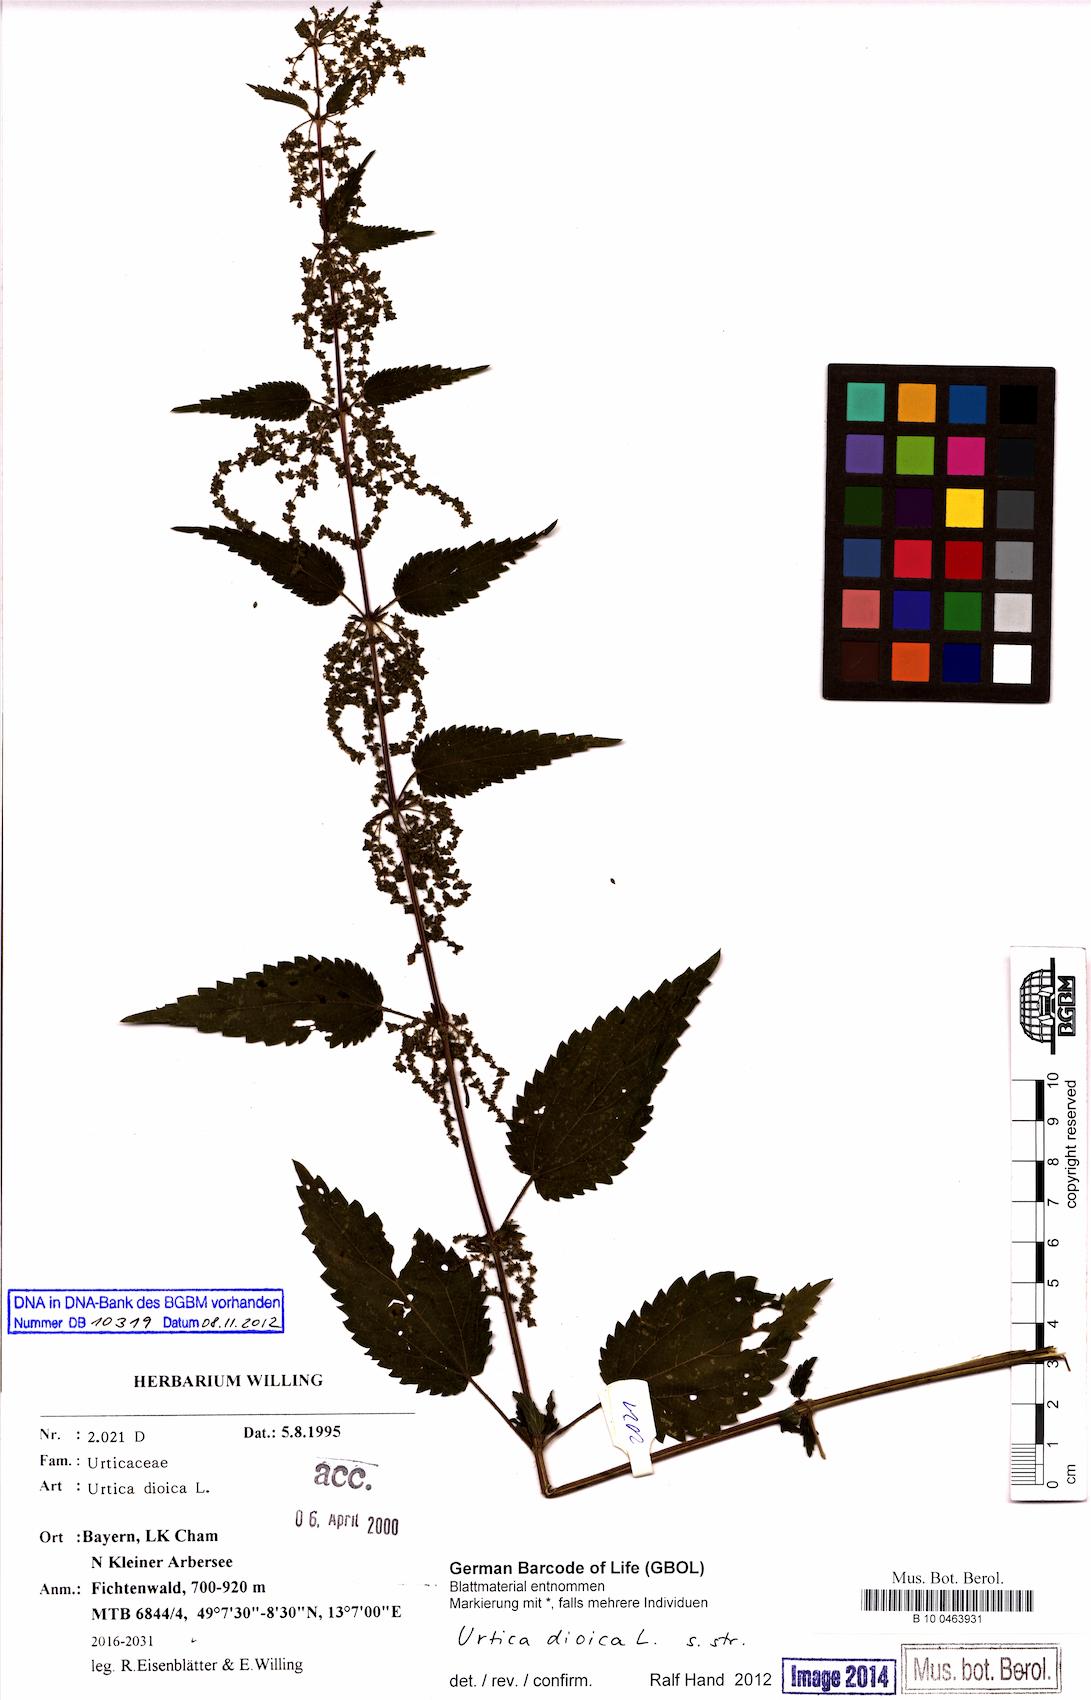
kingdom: Plantae
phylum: Tracheophyta
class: Magnoliopsida
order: Rosales
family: Urticaceae
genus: Urtica
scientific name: Urtica dioica
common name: Common nettle
